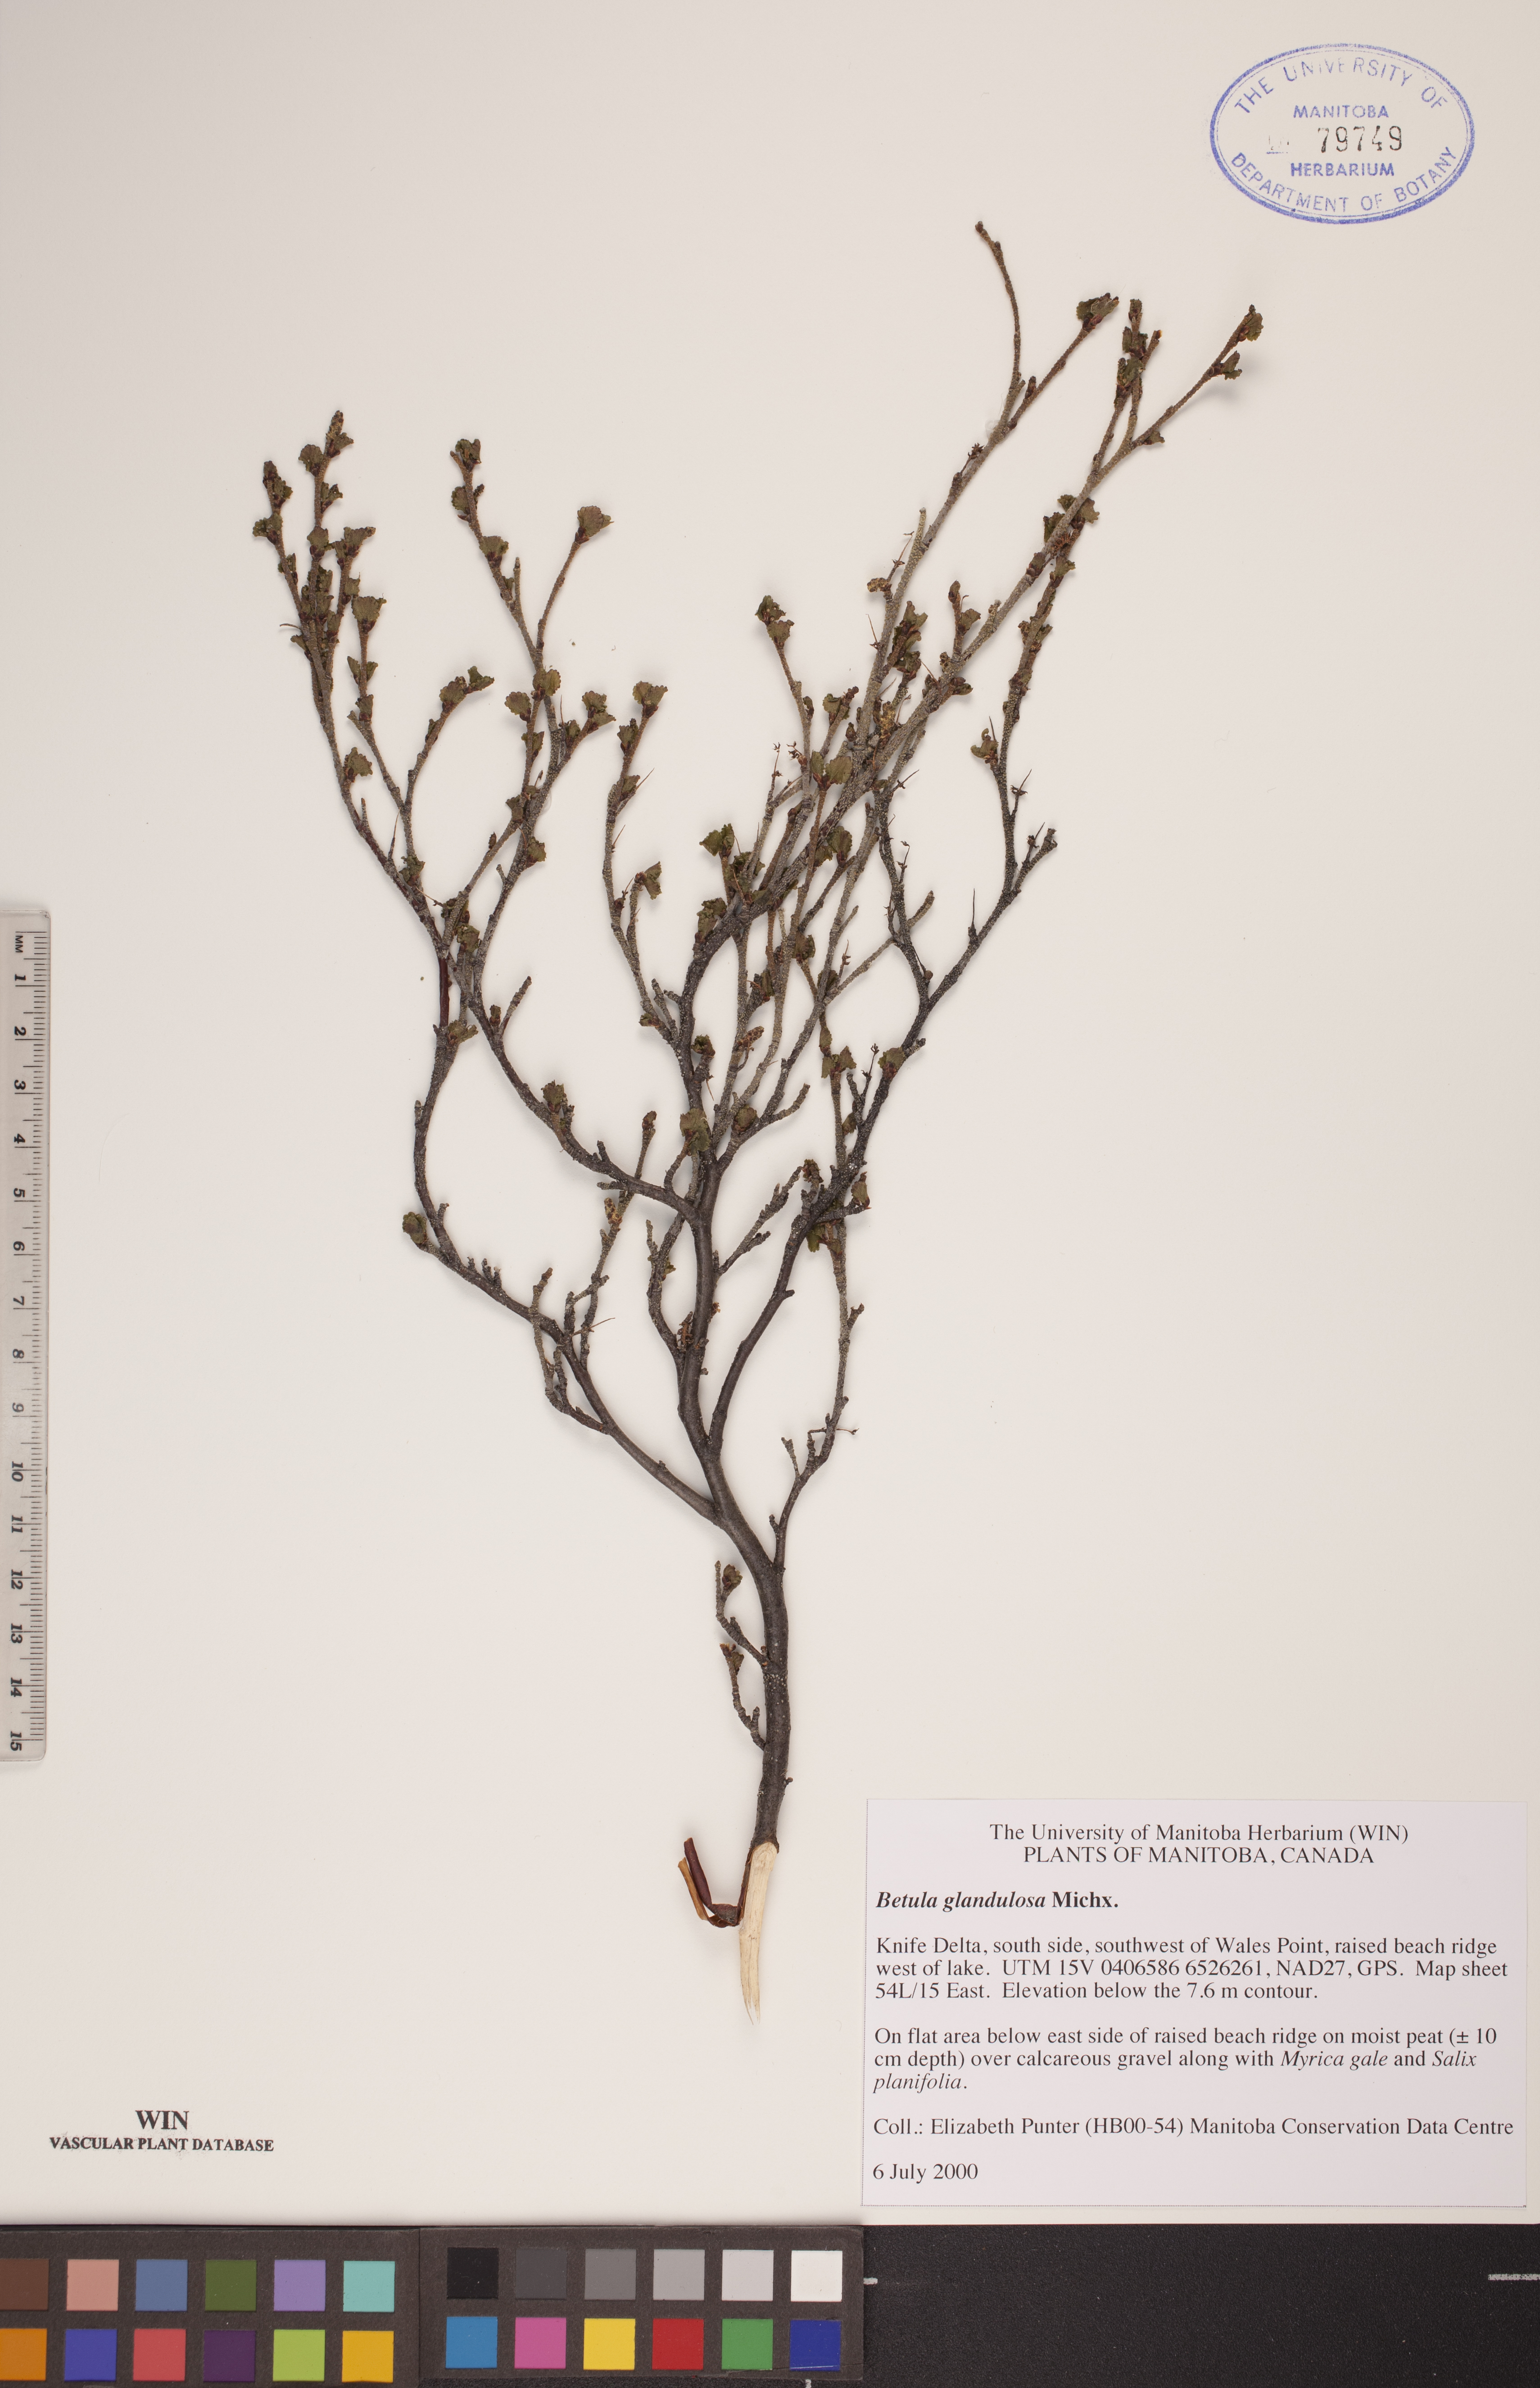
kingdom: Plantae
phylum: Tracheophyta
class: Magnoliopsida
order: Fagales
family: Betulaceae
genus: Betula
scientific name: Betula glandulosa
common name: Dwarf birch
